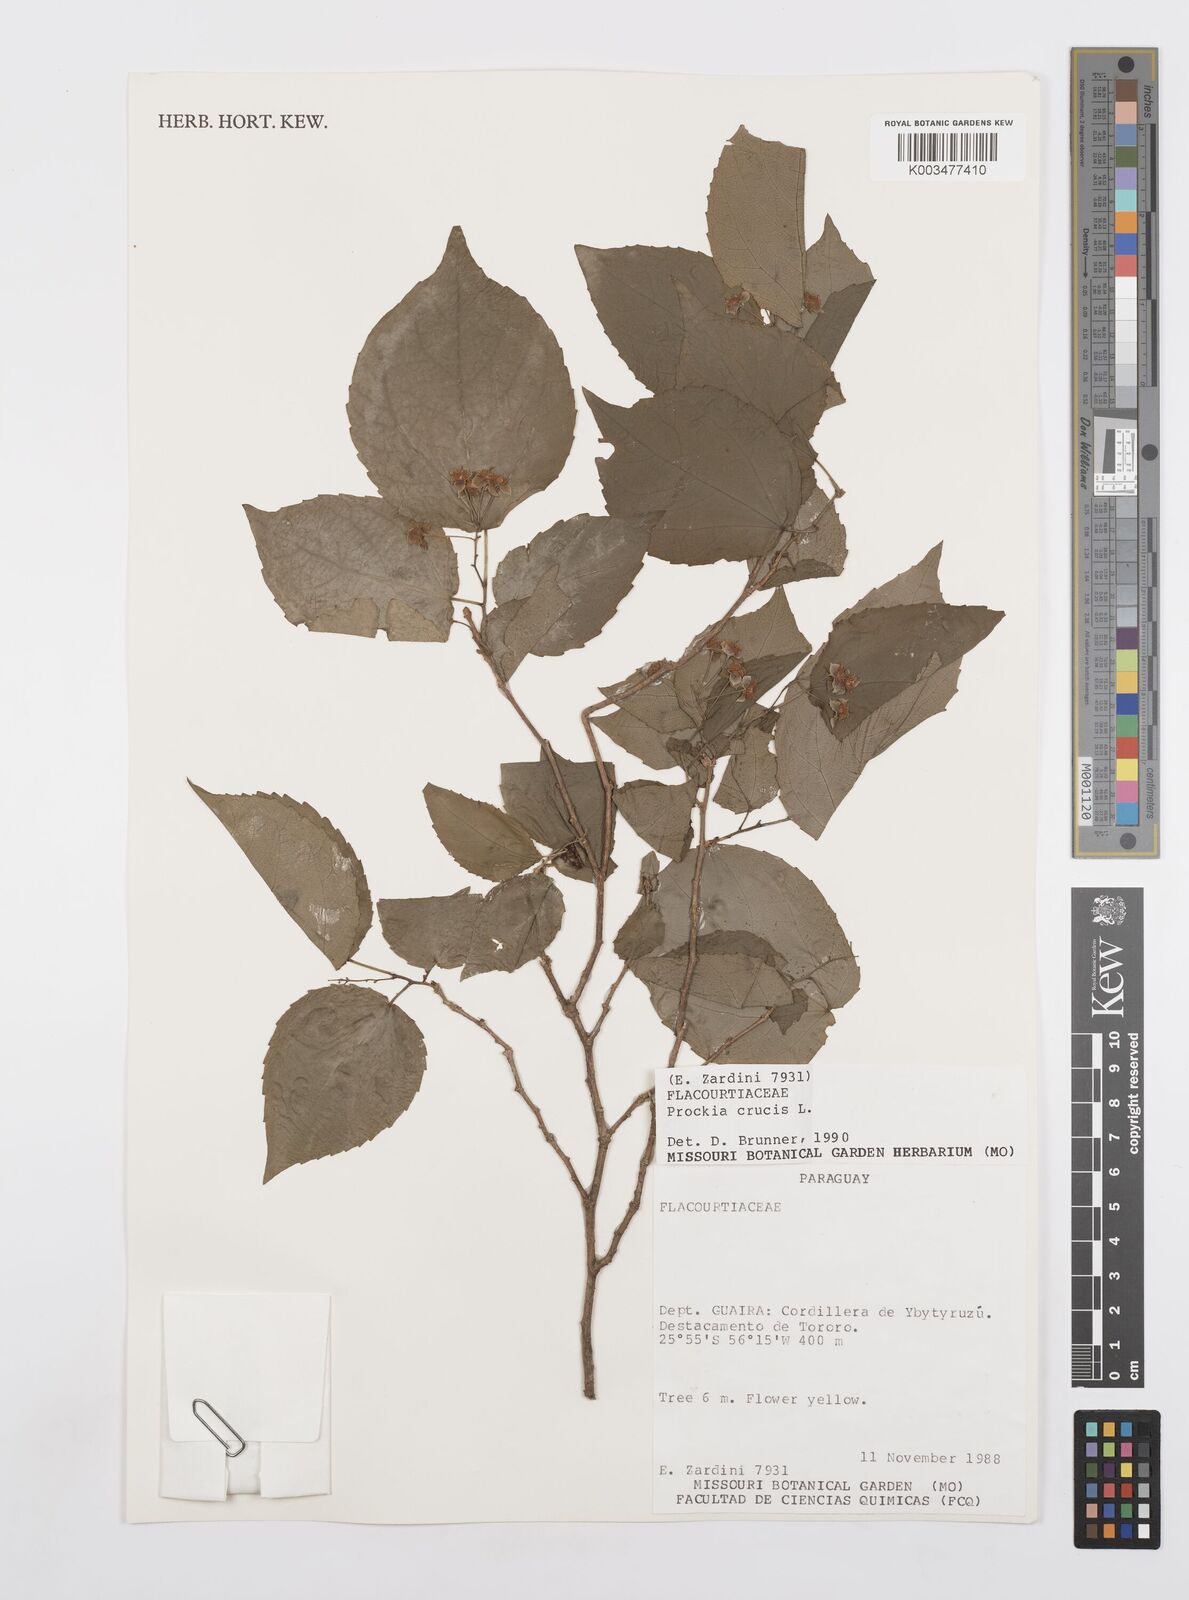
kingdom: Plantae
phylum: Tracheophyta
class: Magnoliopsida
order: Malpighiales
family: Salicaceae
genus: Prockia
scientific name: Prockia crucis
